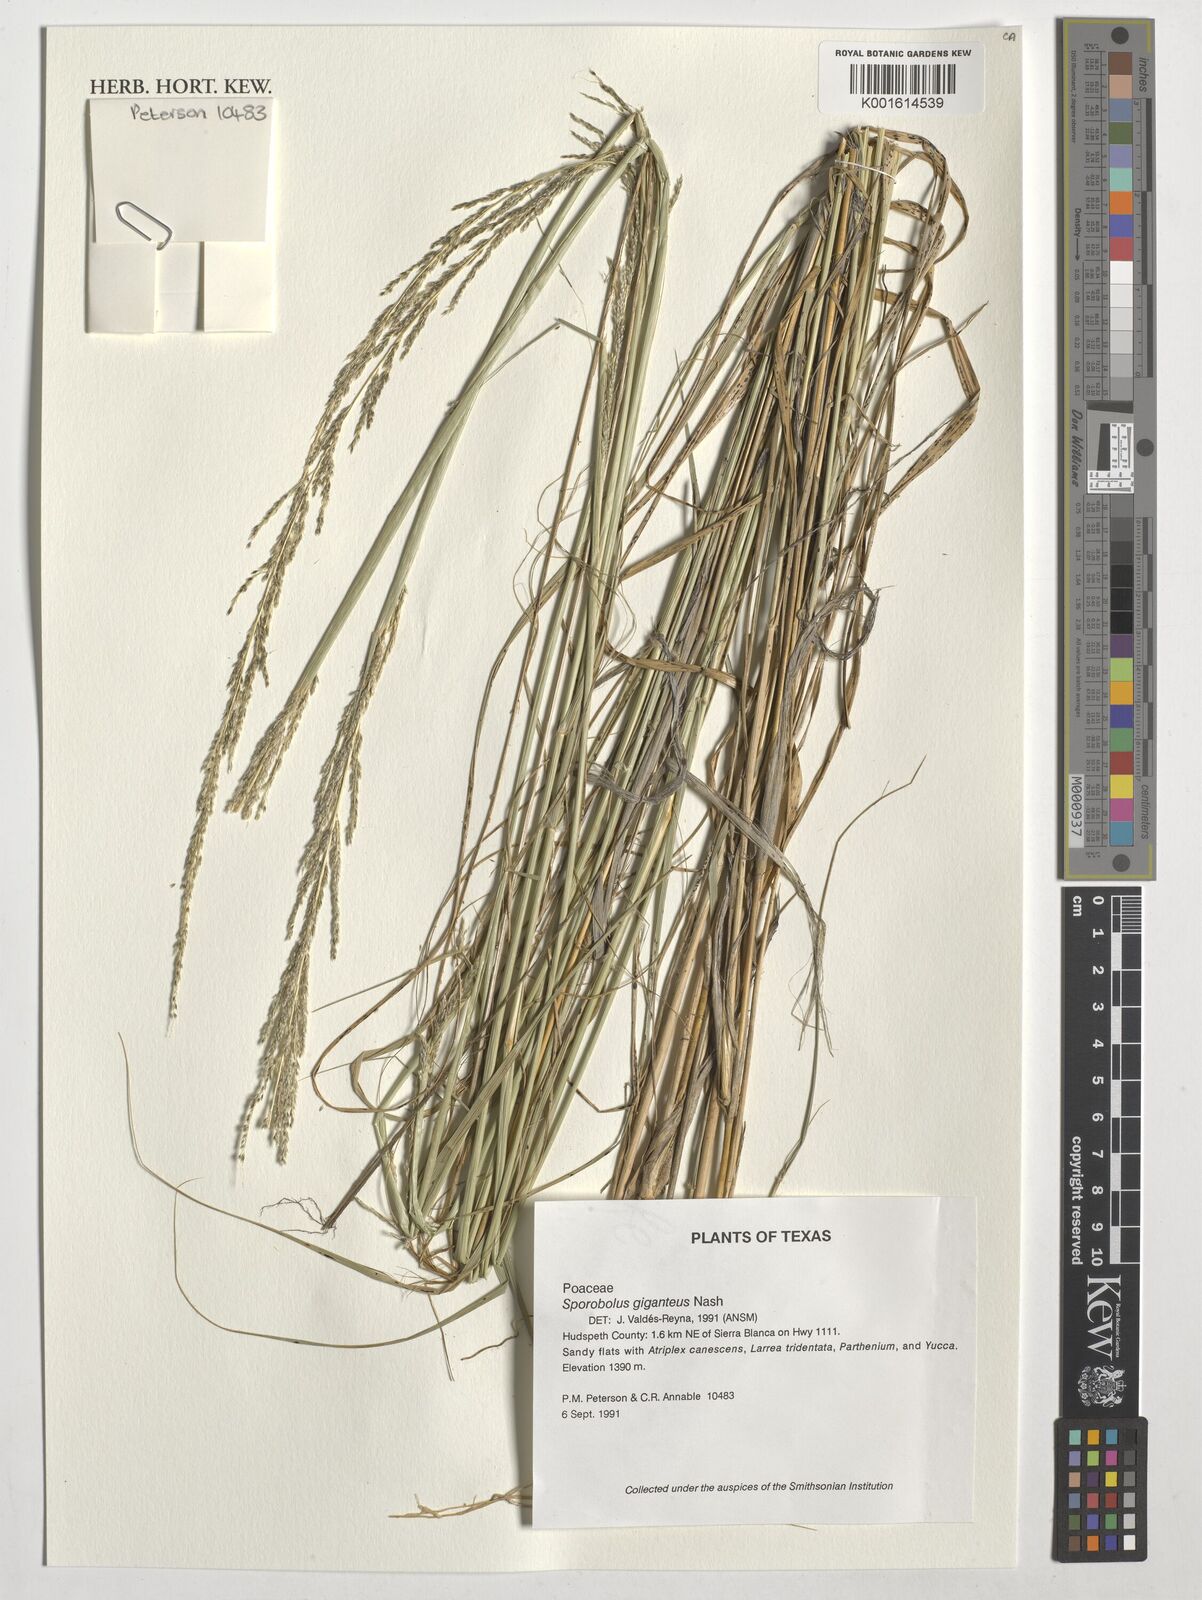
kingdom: Plantae
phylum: Tracheophyta
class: Liliopsida
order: Poales
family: Poaceae
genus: Sporobolus
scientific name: Sporobolus giganteus
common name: Giant dropseed
